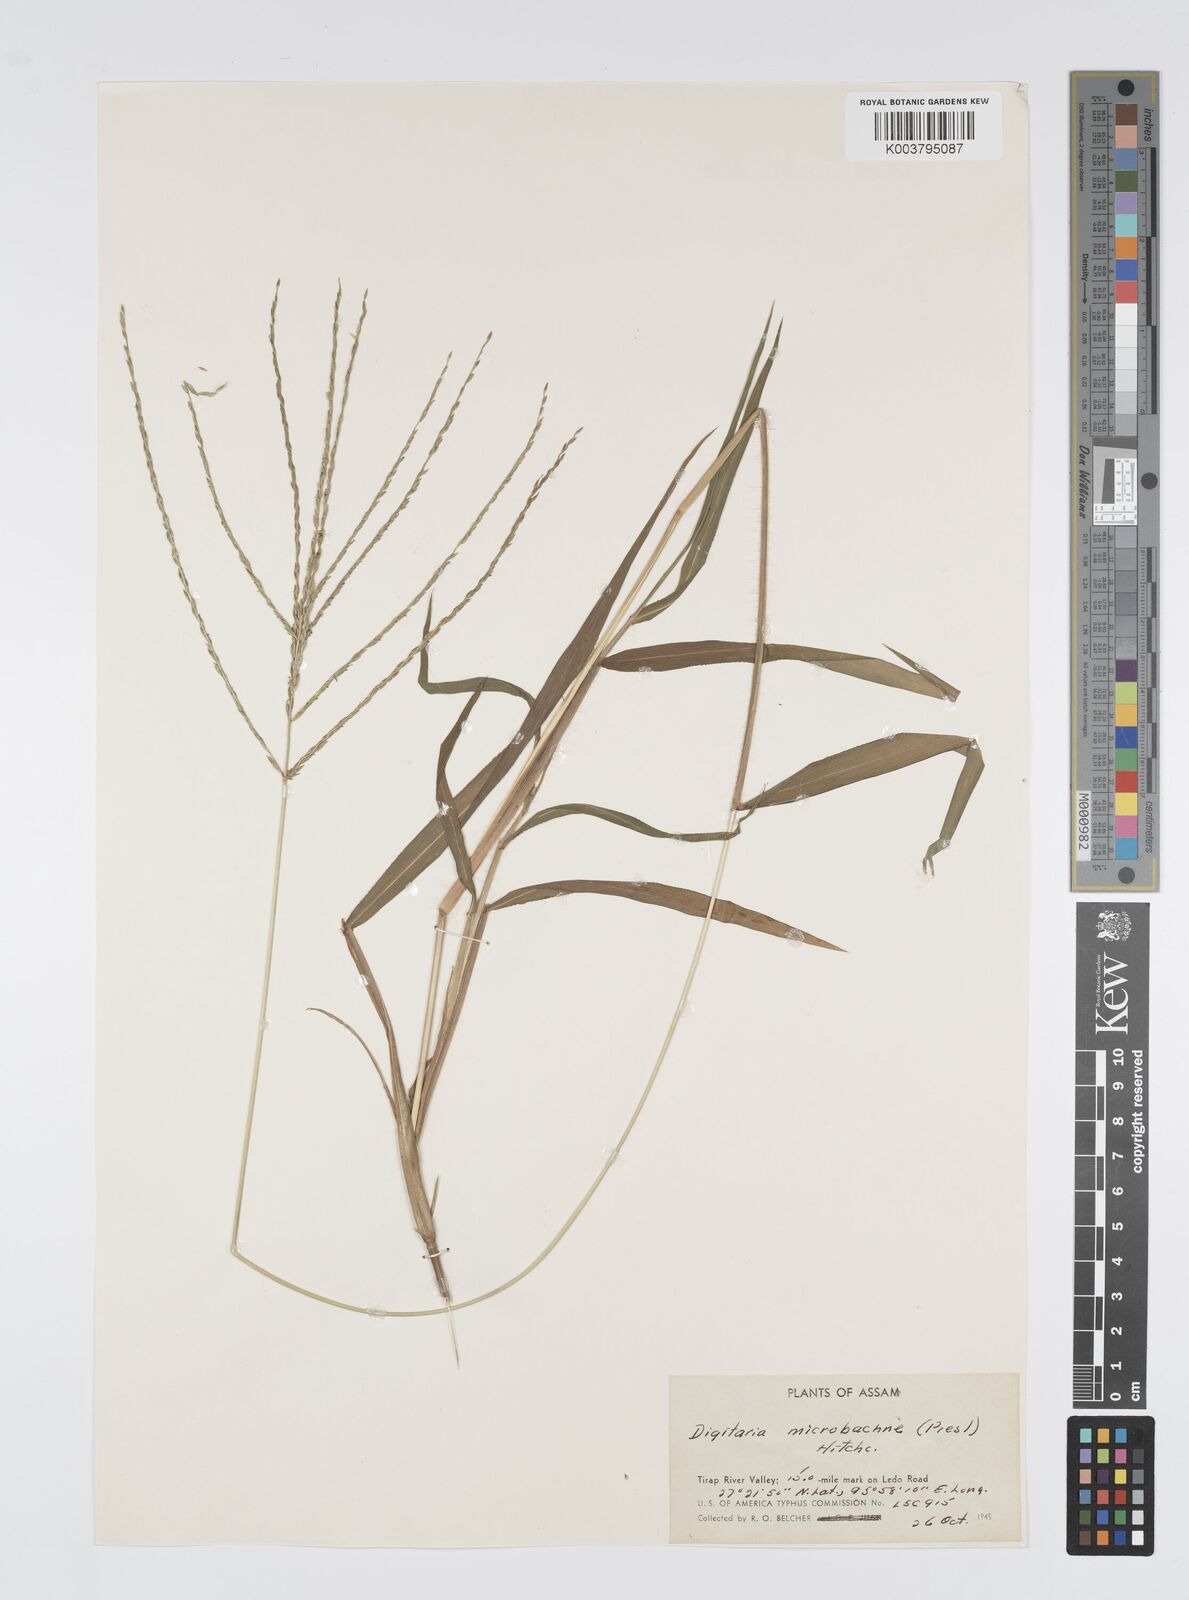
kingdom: Plantae
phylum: Tracheophyta
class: Liliopsida
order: Poales
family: Poaceae
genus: Digitaria
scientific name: Digitaria setigera
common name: East indian crabgrass
